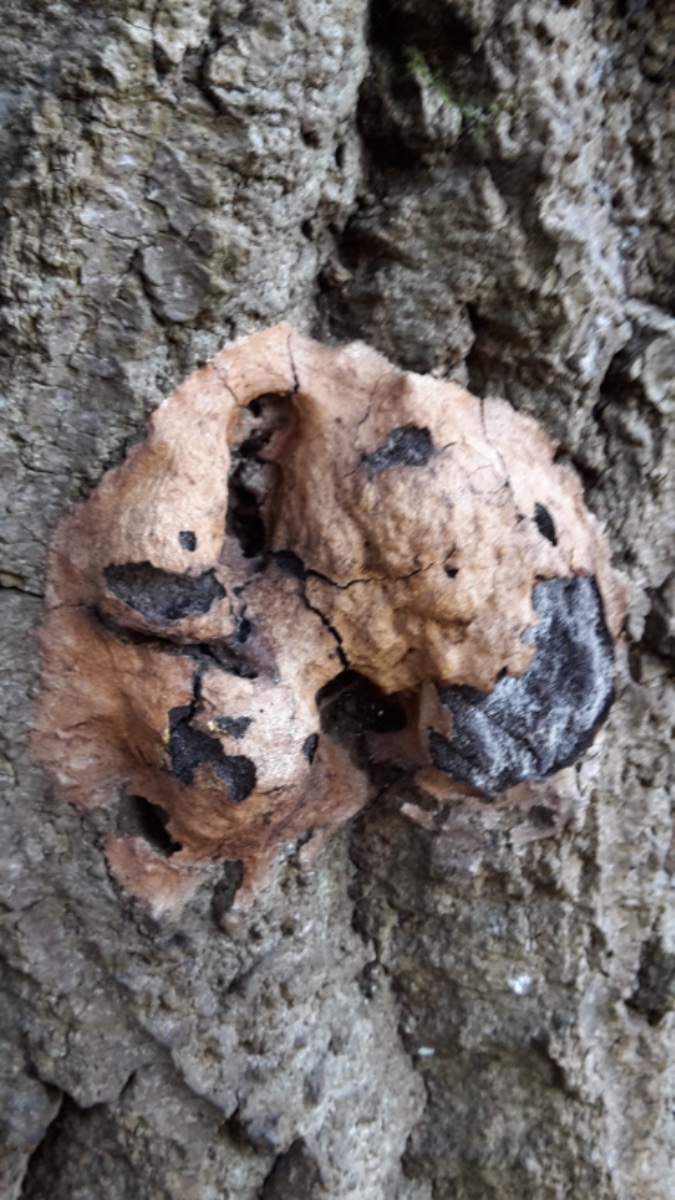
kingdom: Protozoa
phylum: Mycetozoa
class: Myxomycetes
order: Physarales
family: Physaraceae
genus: Fuligo
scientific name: Fuligo leviderma
